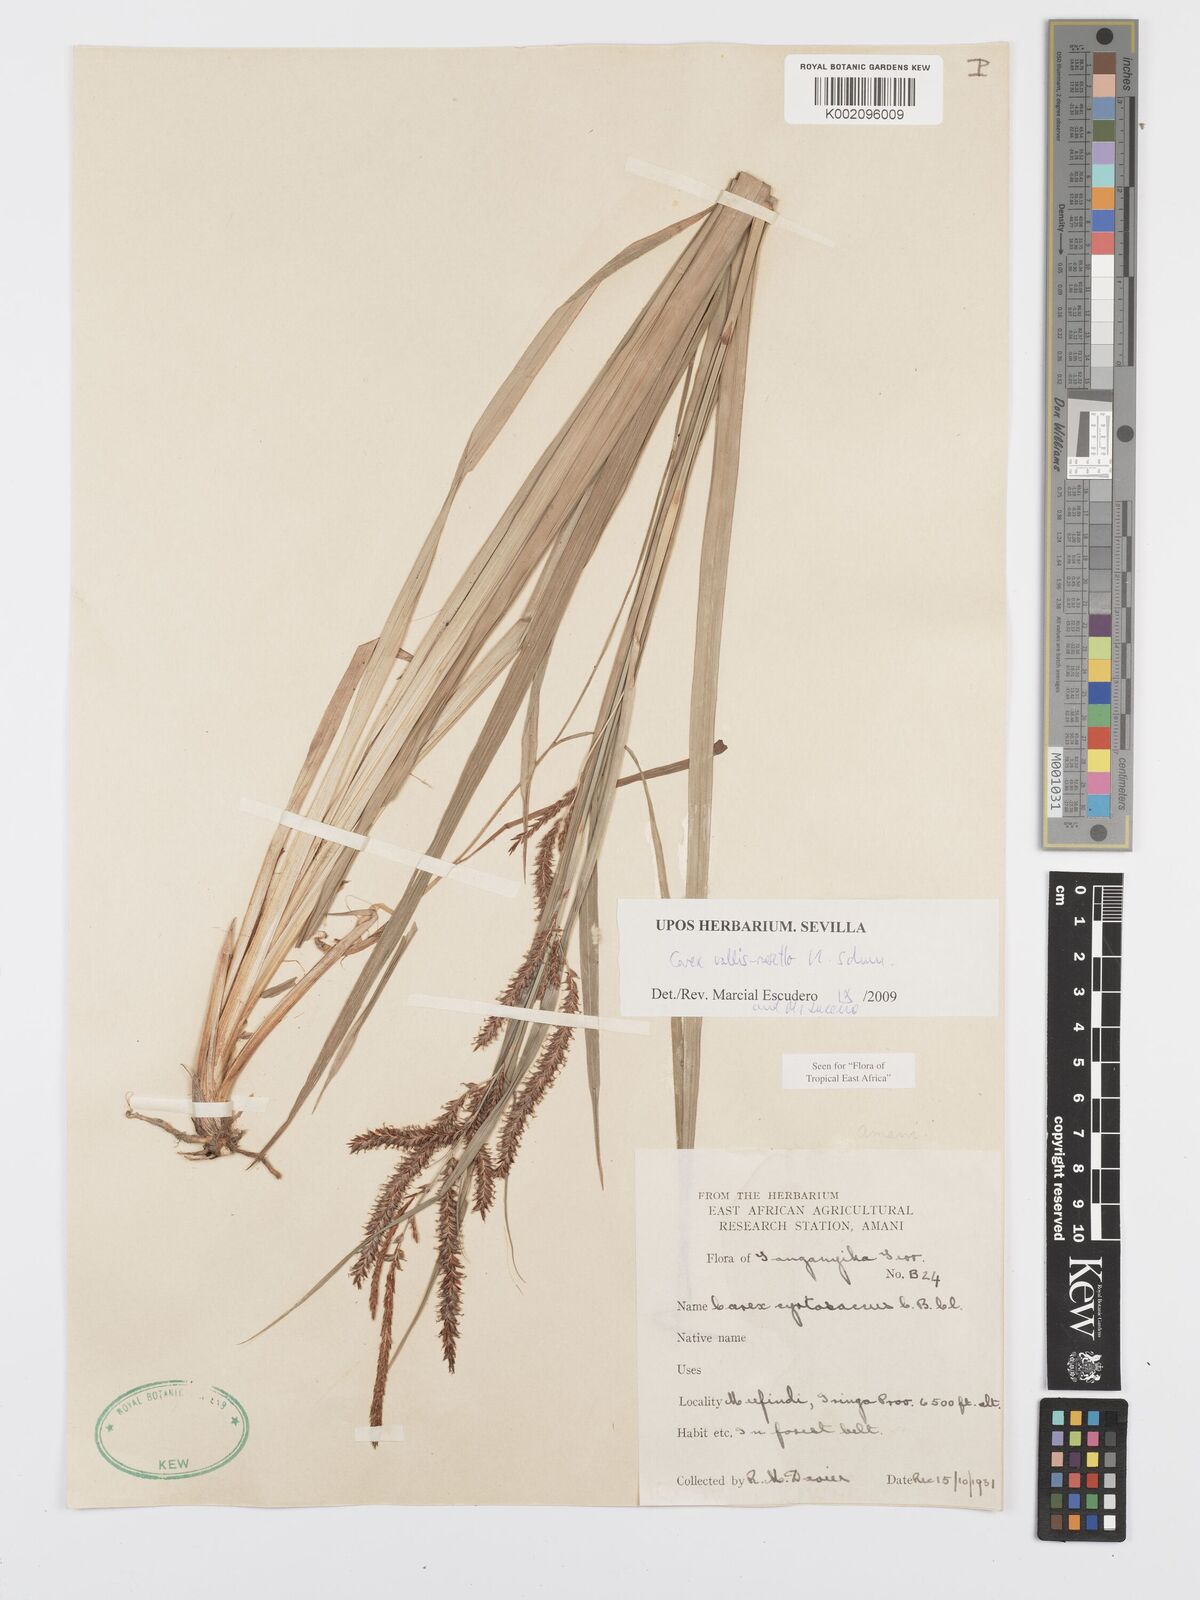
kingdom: Plantae
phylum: Tracheophyta
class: Liliopsida
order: Poales
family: Cyperaceae
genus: Carex
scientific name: Carex vallis-rosetto
